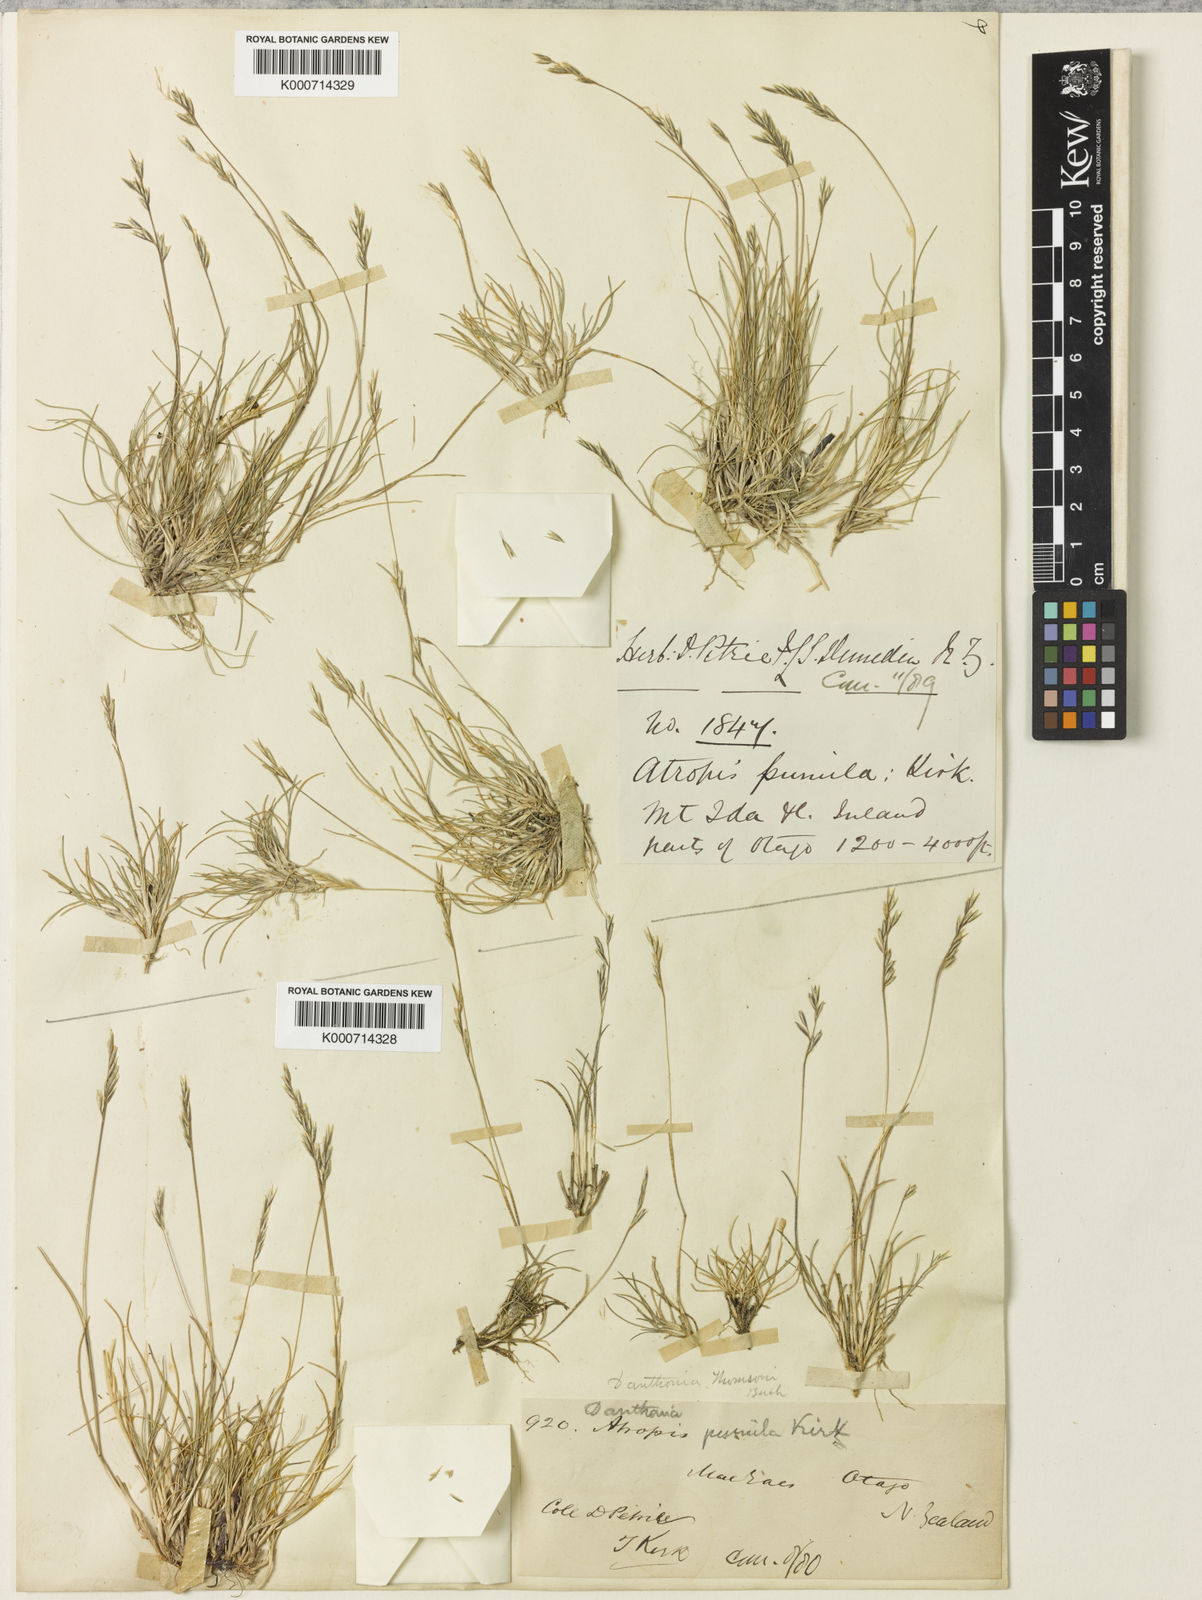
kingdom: Plantae
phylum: Tracheophyta
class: Liliopsida
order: Poales
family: Poaceae
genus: Rytidosperma
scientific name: Rytidosperma pumilum
